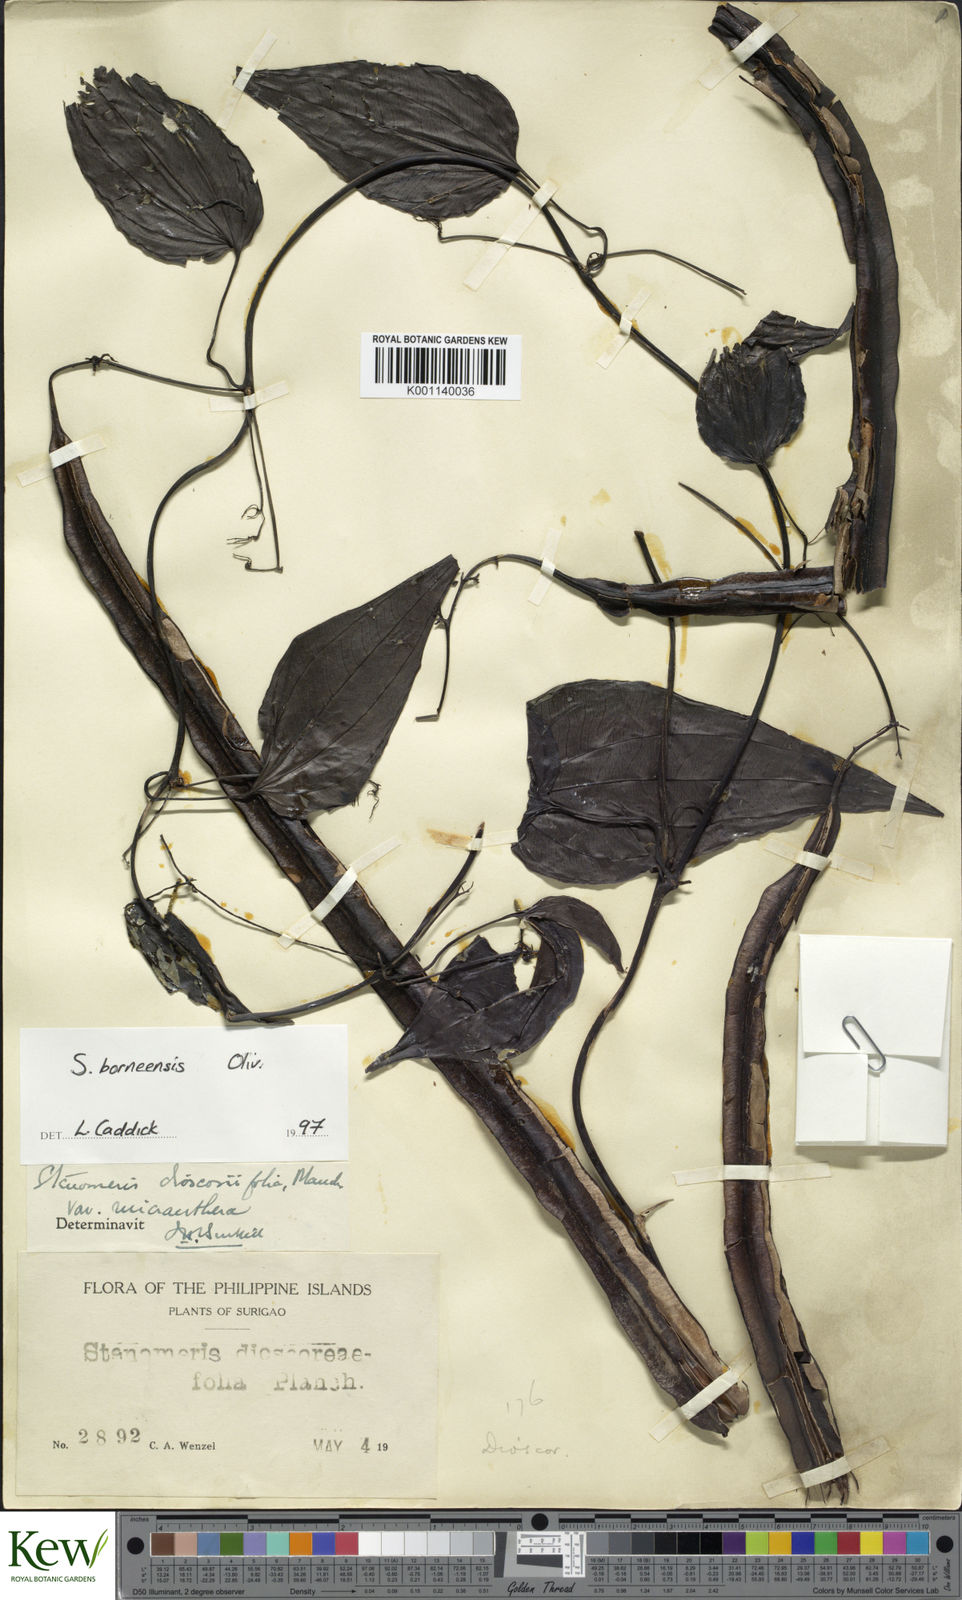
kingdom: Plantae
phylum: Tracheophyta
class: Liliopsida
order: Dioscoreales
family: Dioscoreaceae
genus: Stenomeris
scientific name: Stenomeris borneensis
